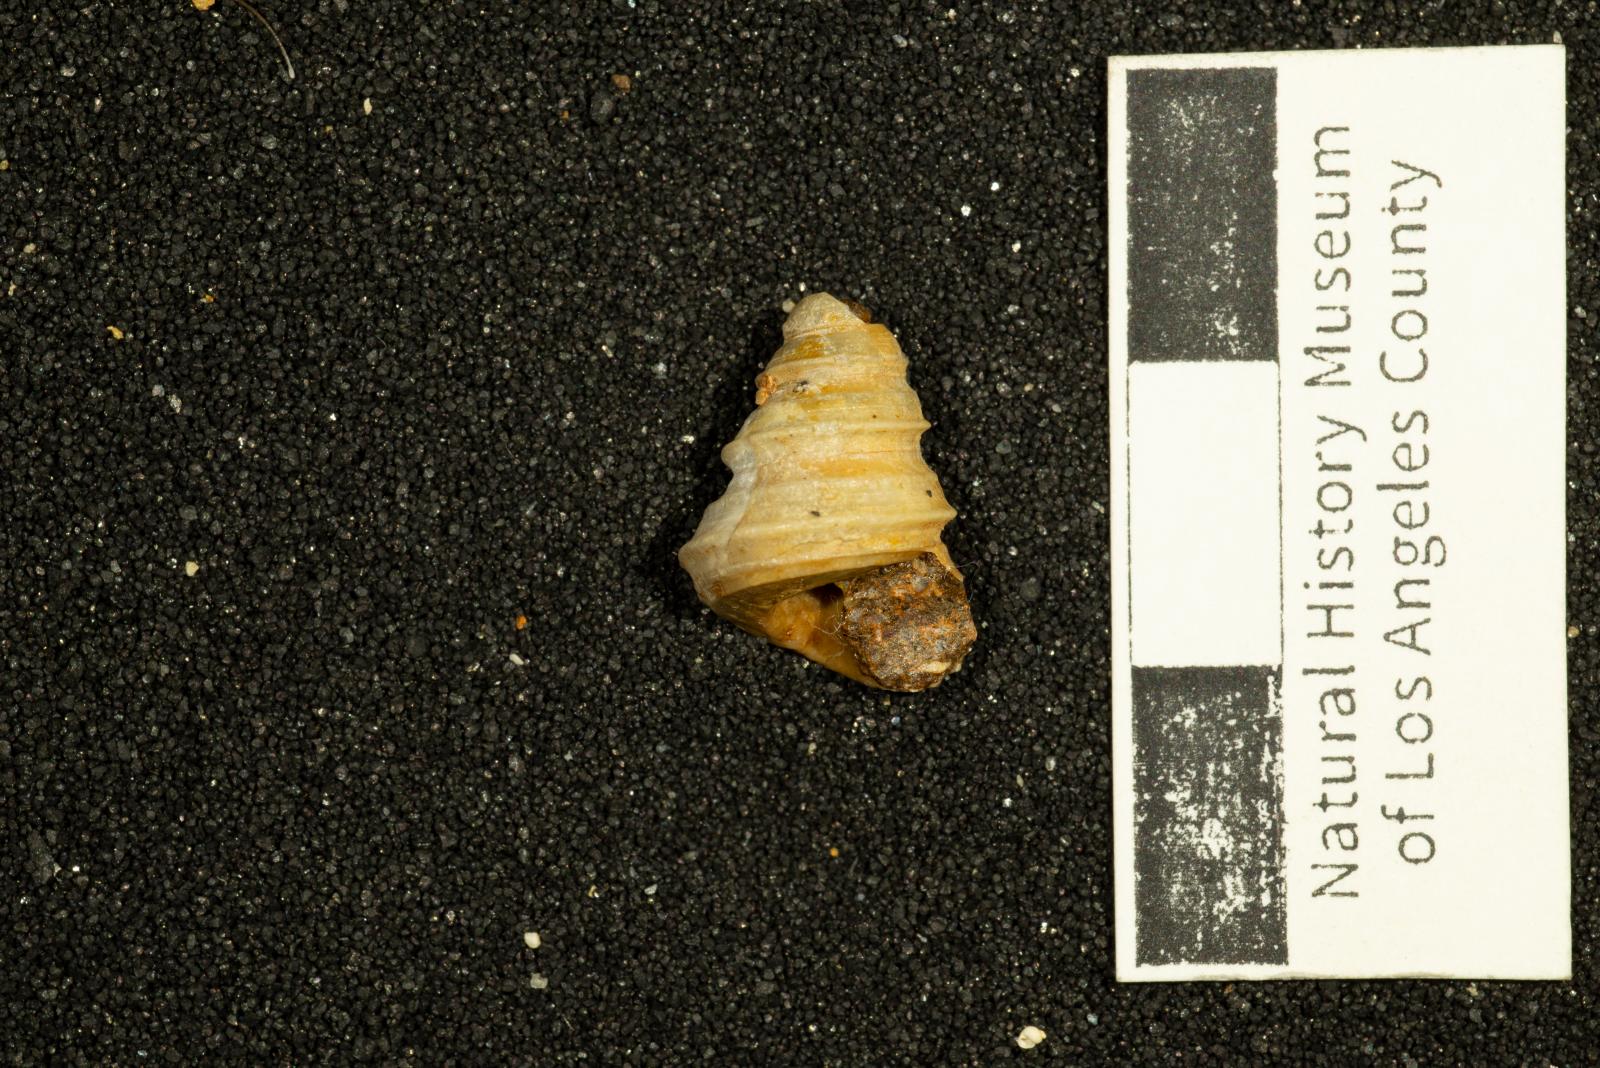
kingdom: Animalia
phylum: Mollusca
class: Gastropoda
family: Turritellidae
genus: Turritella
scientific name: Turritella robusta
